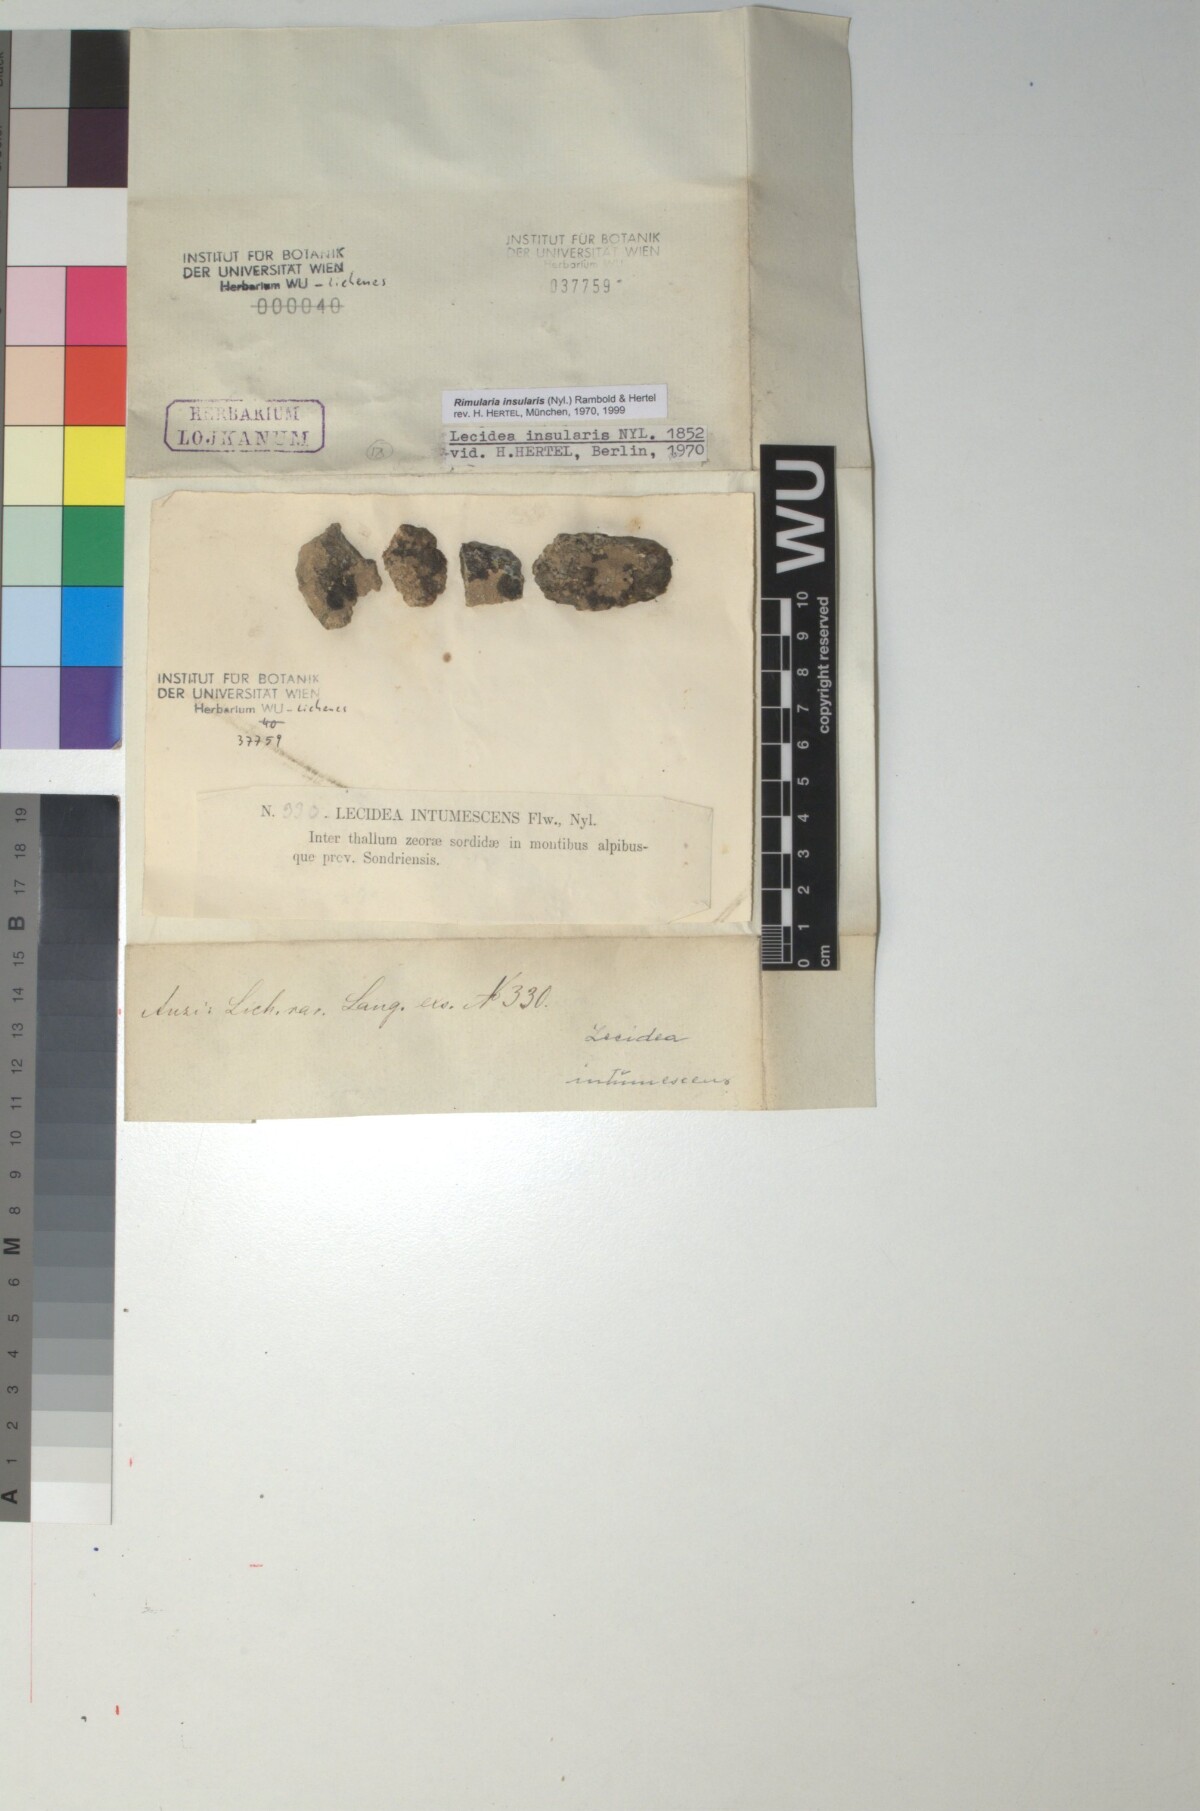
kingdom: Fungi
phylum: Ascomycota
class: Lecanoromycetes
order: Baeomycetales
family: Trapeliaceae
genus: Lambiella
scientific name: Lambiella insularis
